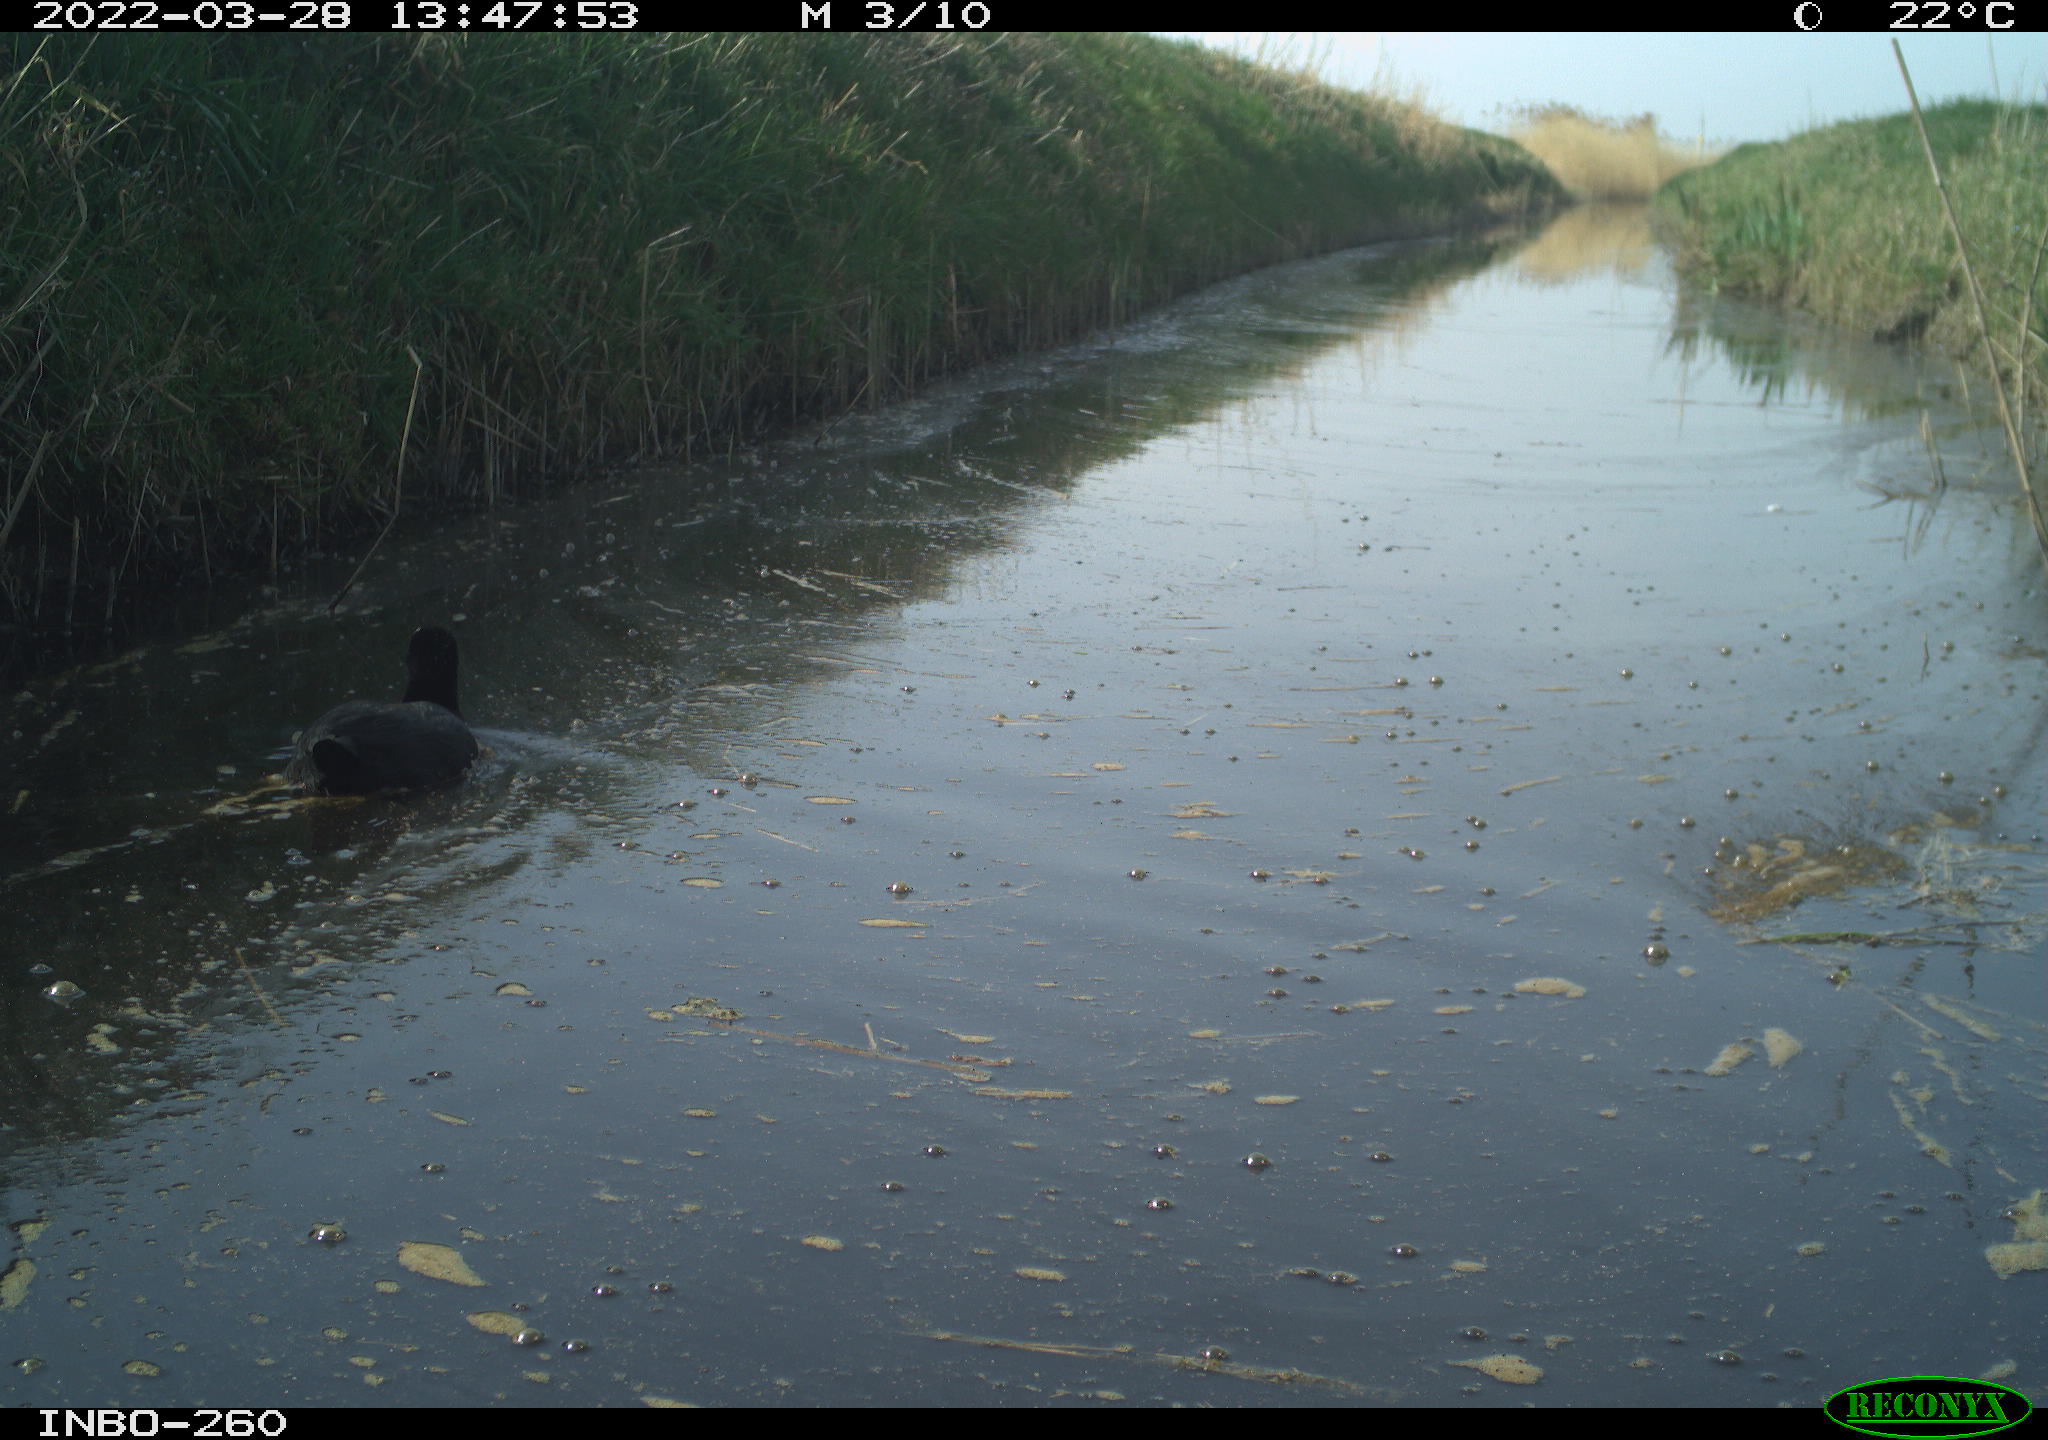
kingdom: Animalia
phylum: Chordata
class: Aves
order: Gruiformes
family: Rallidae
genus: Fulica
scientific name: Fulica atra
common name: Eurasian coot
